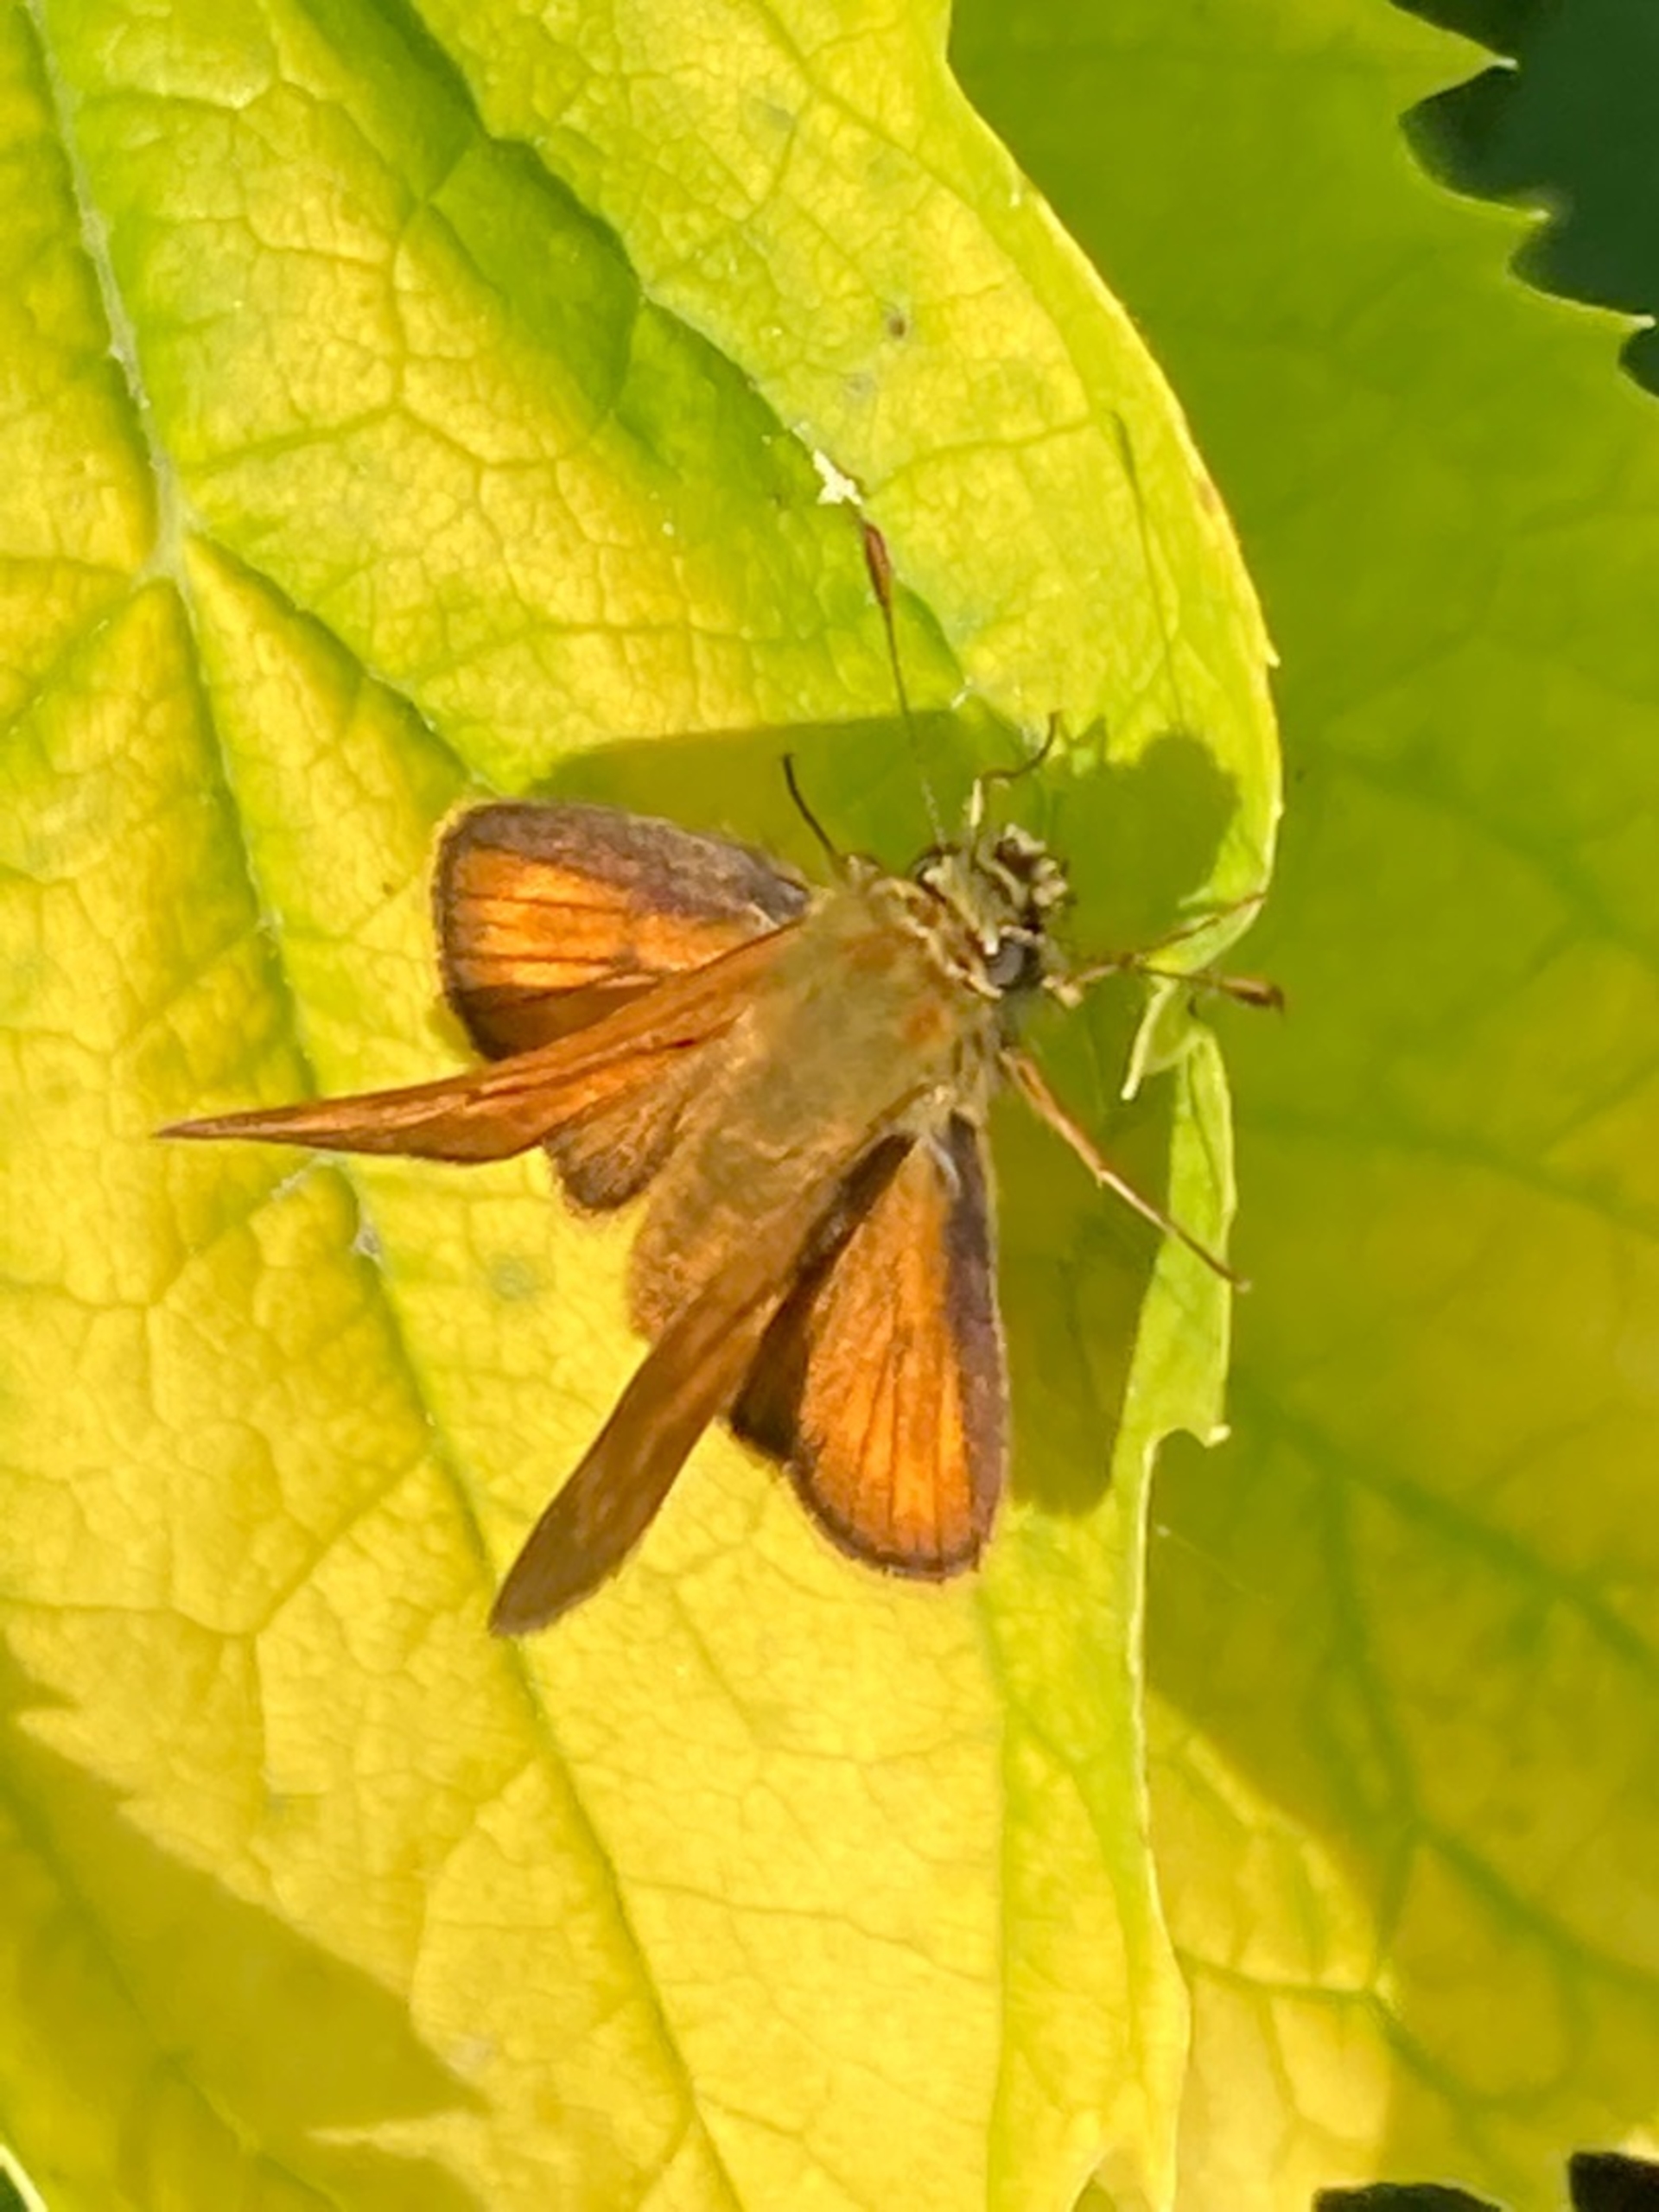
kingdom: Animalia
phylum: Arthropoda
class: Insecta
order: Lepidoptera
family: Hesperiidae
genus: Ochlodes
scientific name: Ochlodes venata
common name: Stor bredpande
